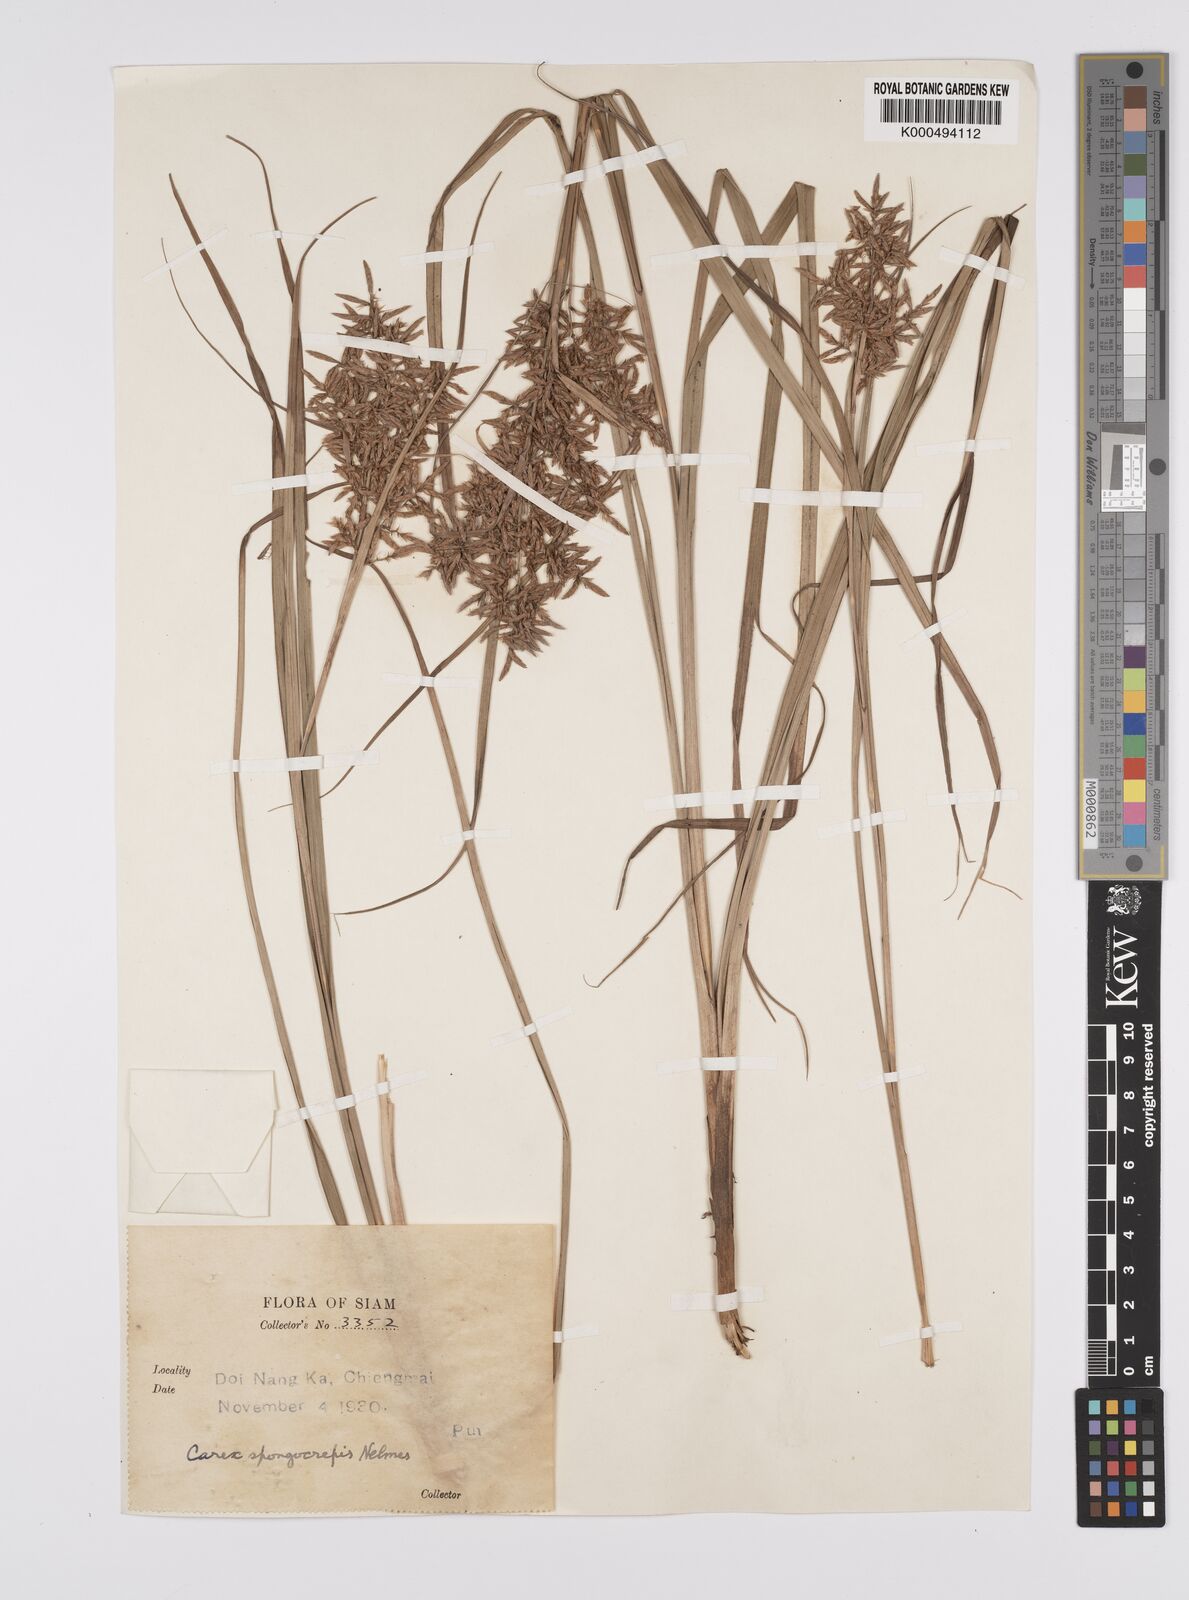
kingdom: Plantae
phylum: Tracheophyta
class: Liliopsida
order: Poales
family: Cyperaceae
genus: Carex
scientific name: Carex cruciata
